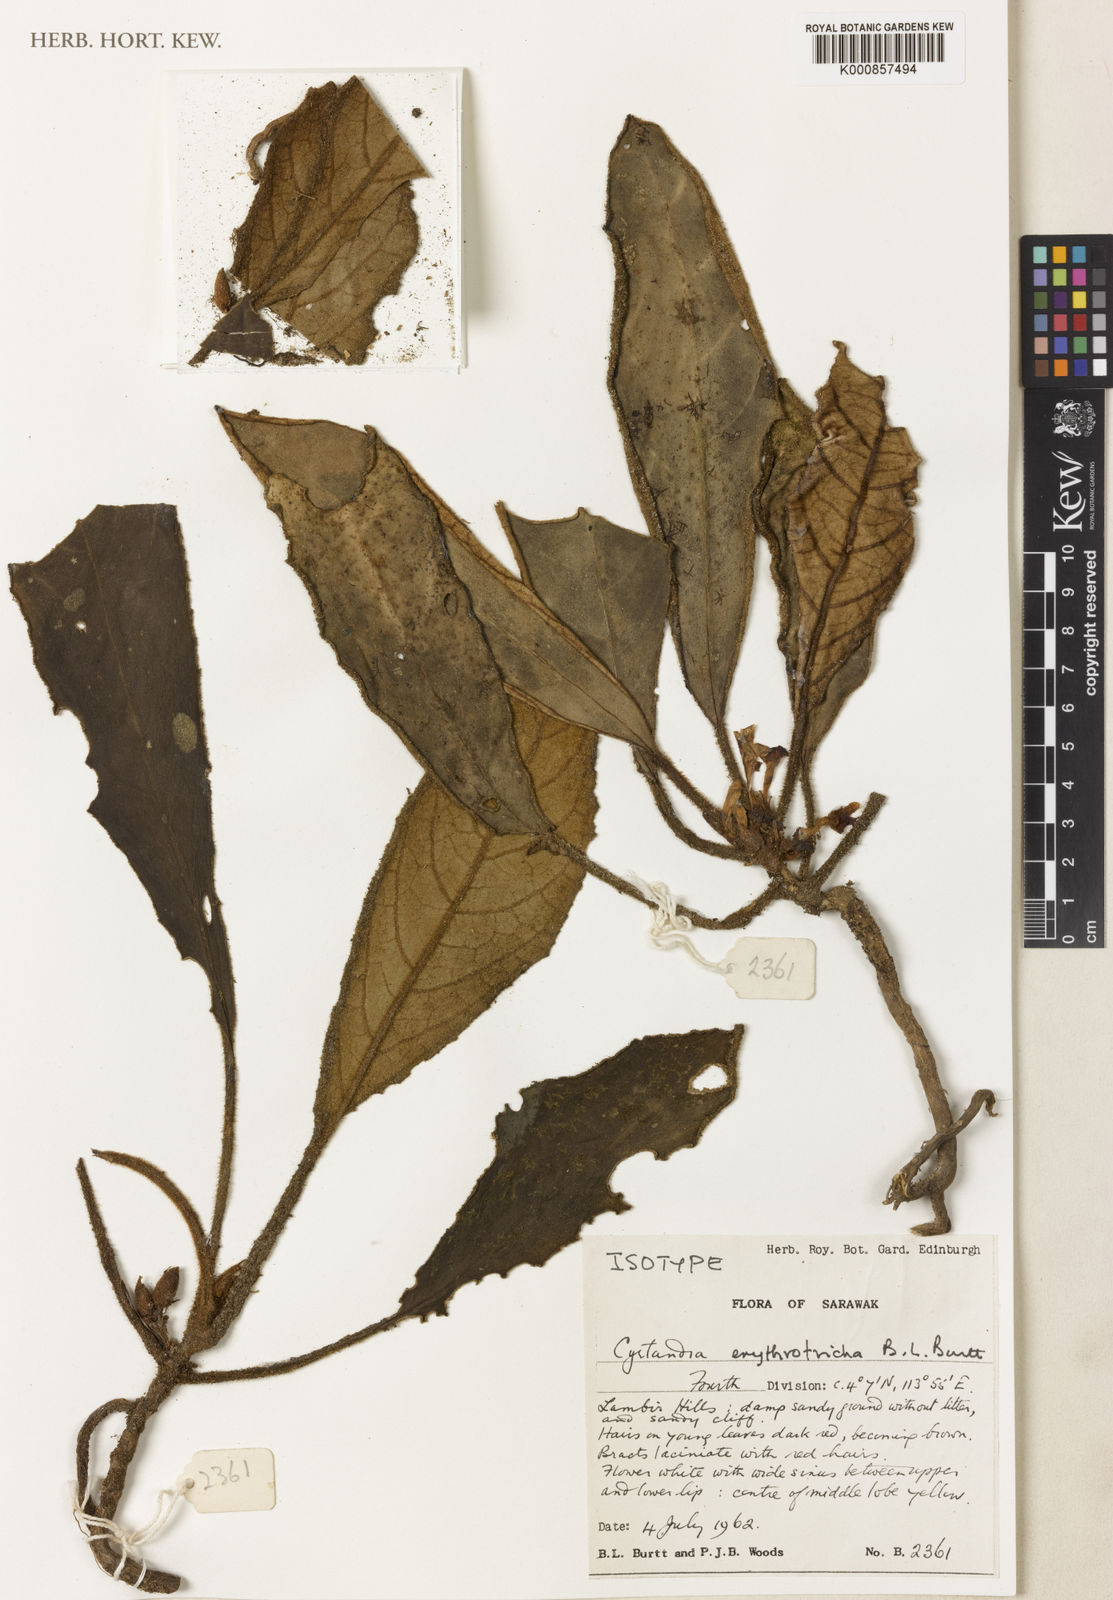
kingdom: Plantae
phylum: Tracheophyta
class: Magnoliopsida
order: Lamiales
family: Gesneriaceae
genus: Cyrtandra
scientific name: Cyrtandra erythrotricha
